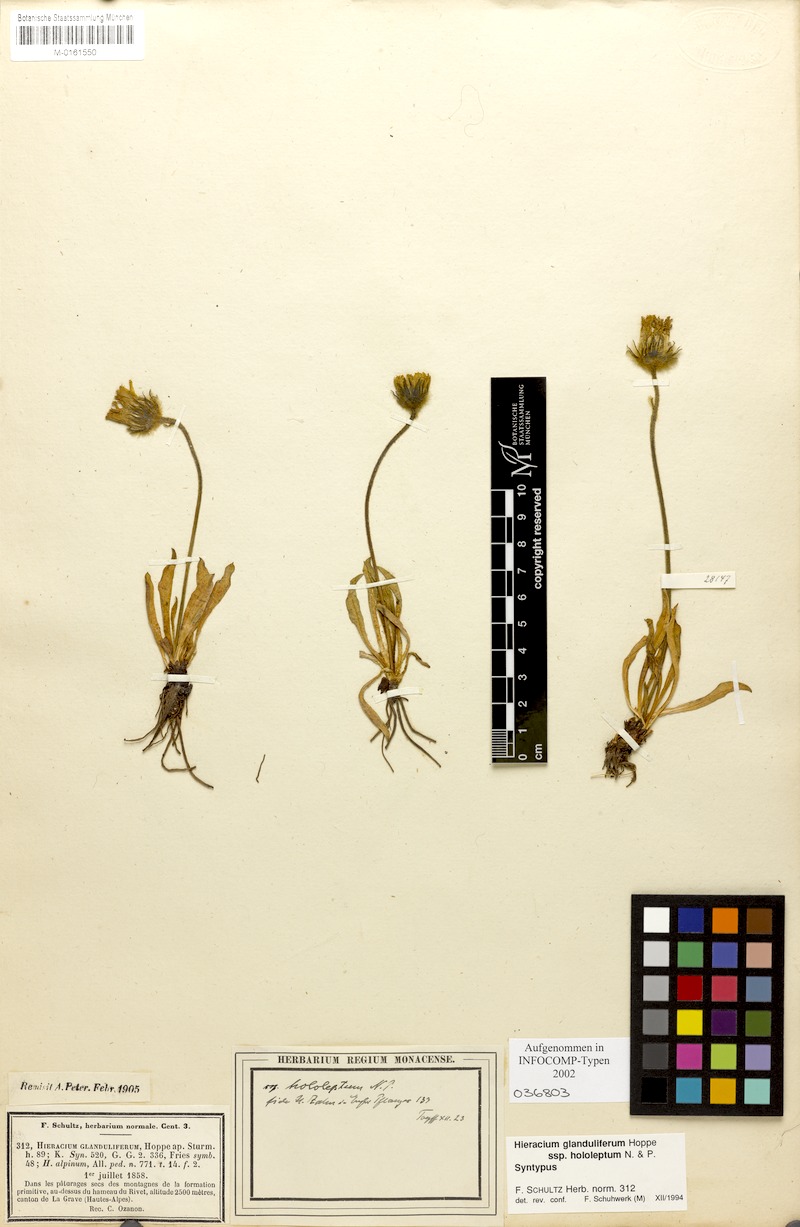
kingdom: Plantae
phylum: Tracheophyta
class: Magnoliopsida
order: Asterales
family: Asteraceae
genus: Hieracium
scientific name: Hieracium piliferum
